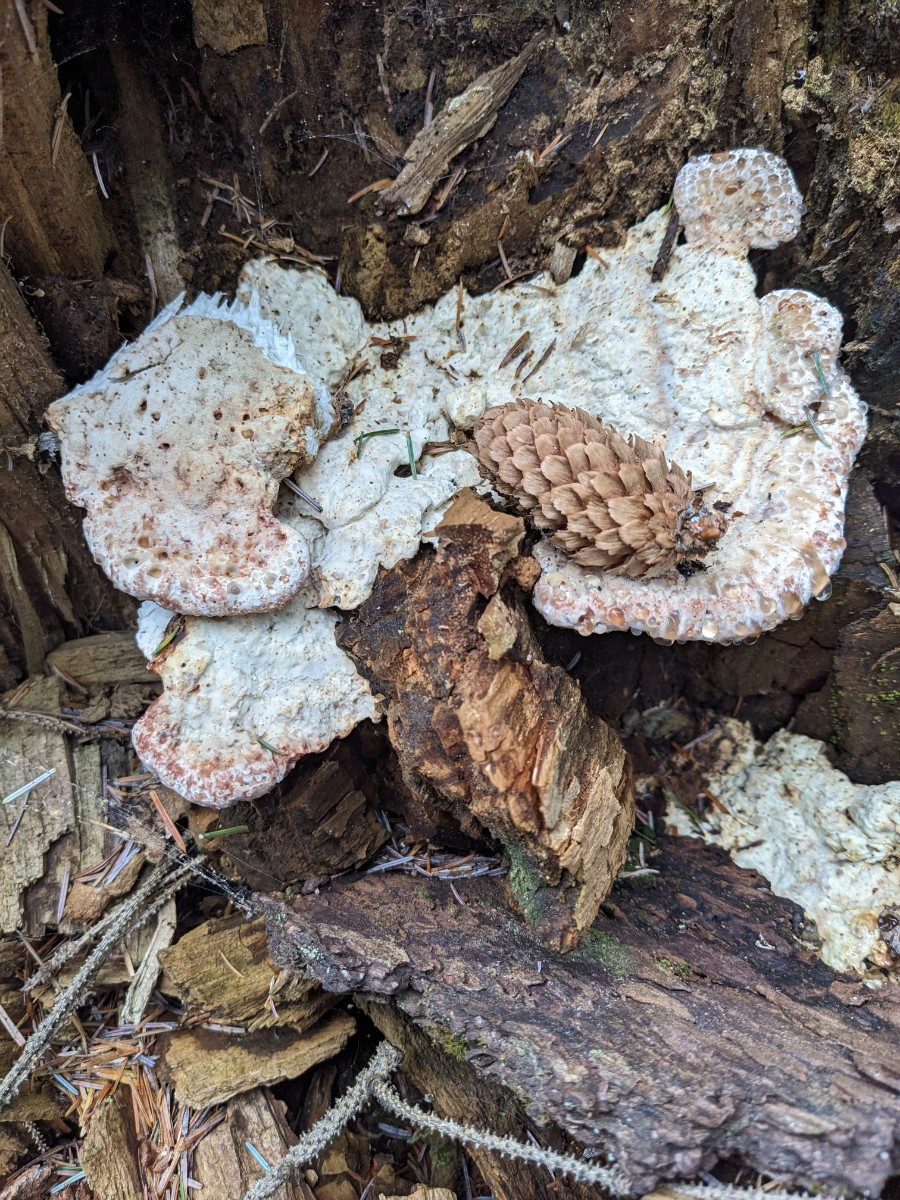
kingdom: Fungi
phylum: Basidiomycota
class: Agaricomycetes
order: Polyporales
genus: Calcipostia
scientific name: Calcipostia guttulata
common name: dråbe-kødporesvamp
